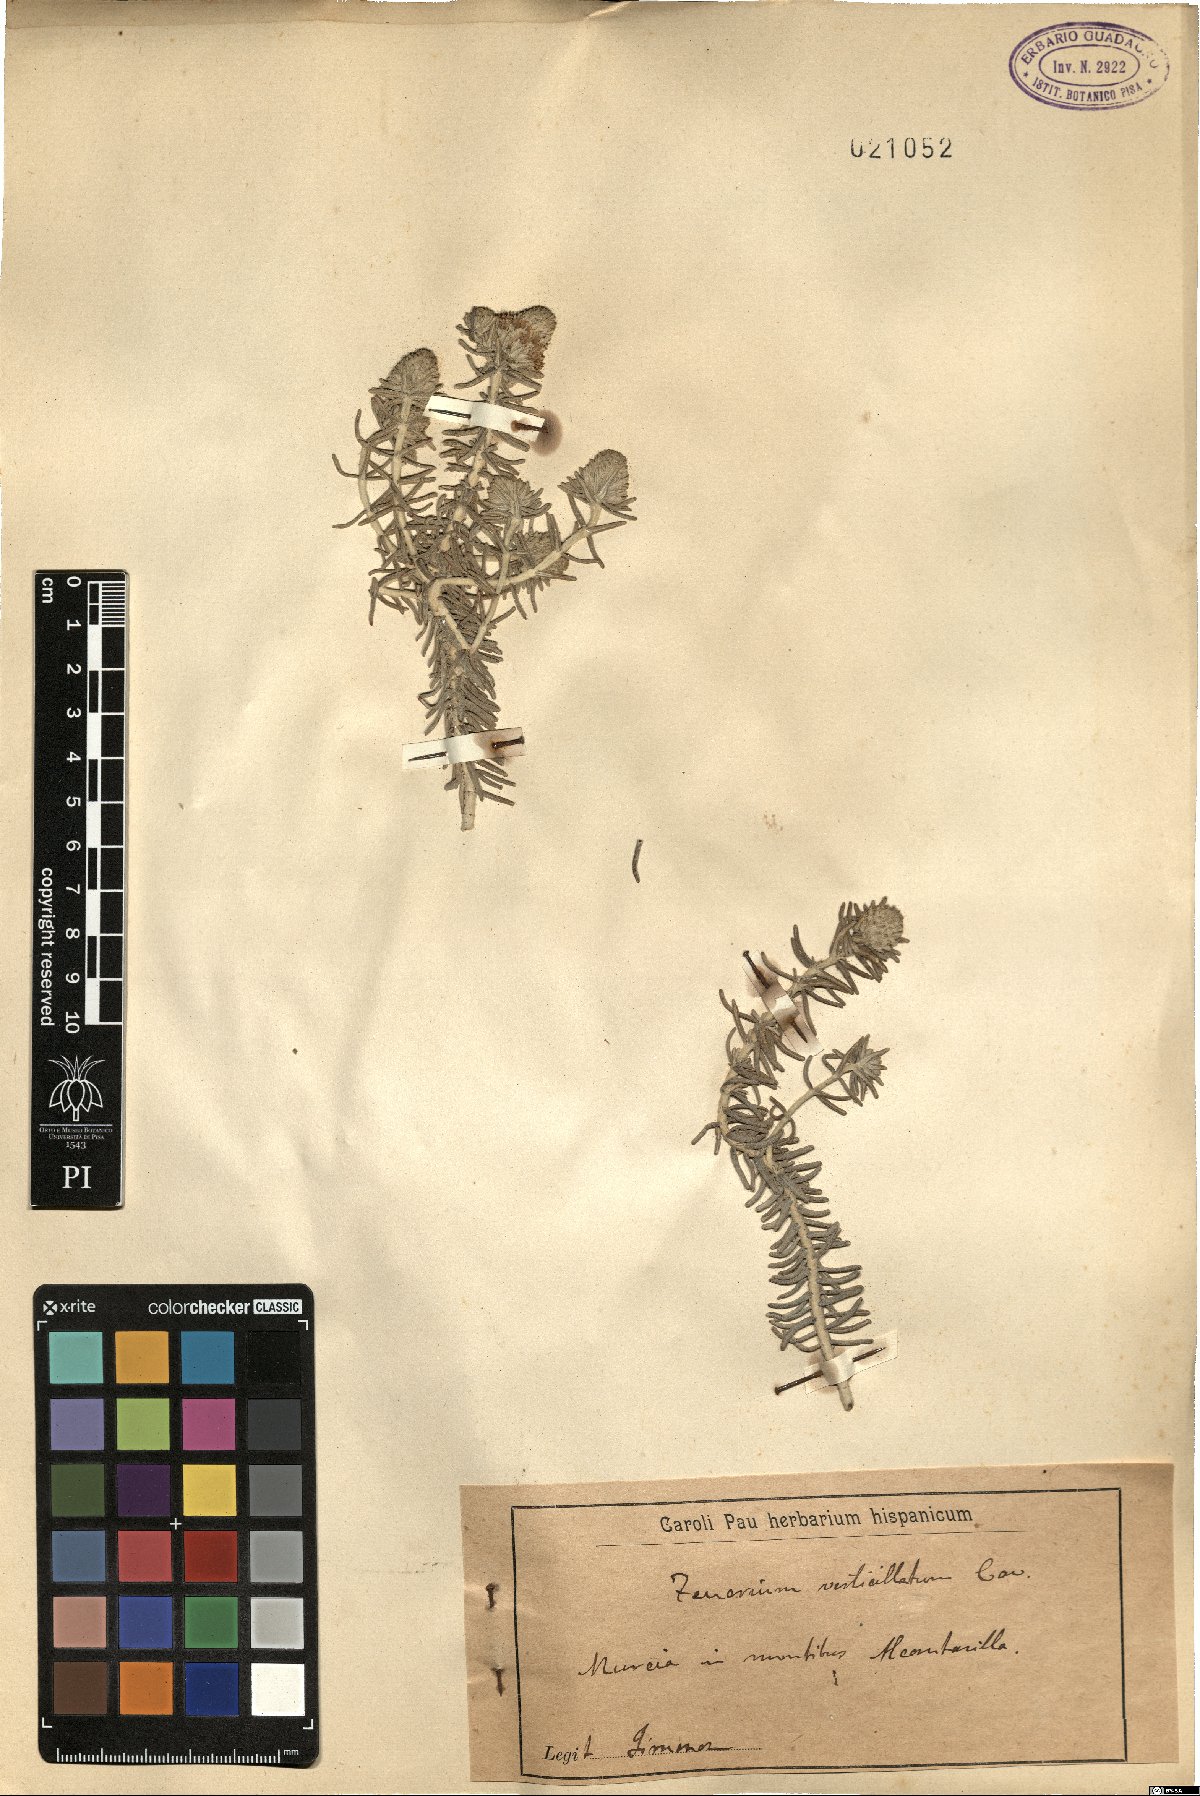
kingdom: Plantae
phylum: Tracheophyta
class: Magnoliopsida
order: Lamiales
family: Lamiaceae
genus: Teucrium
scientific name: Teucrium libanitis
